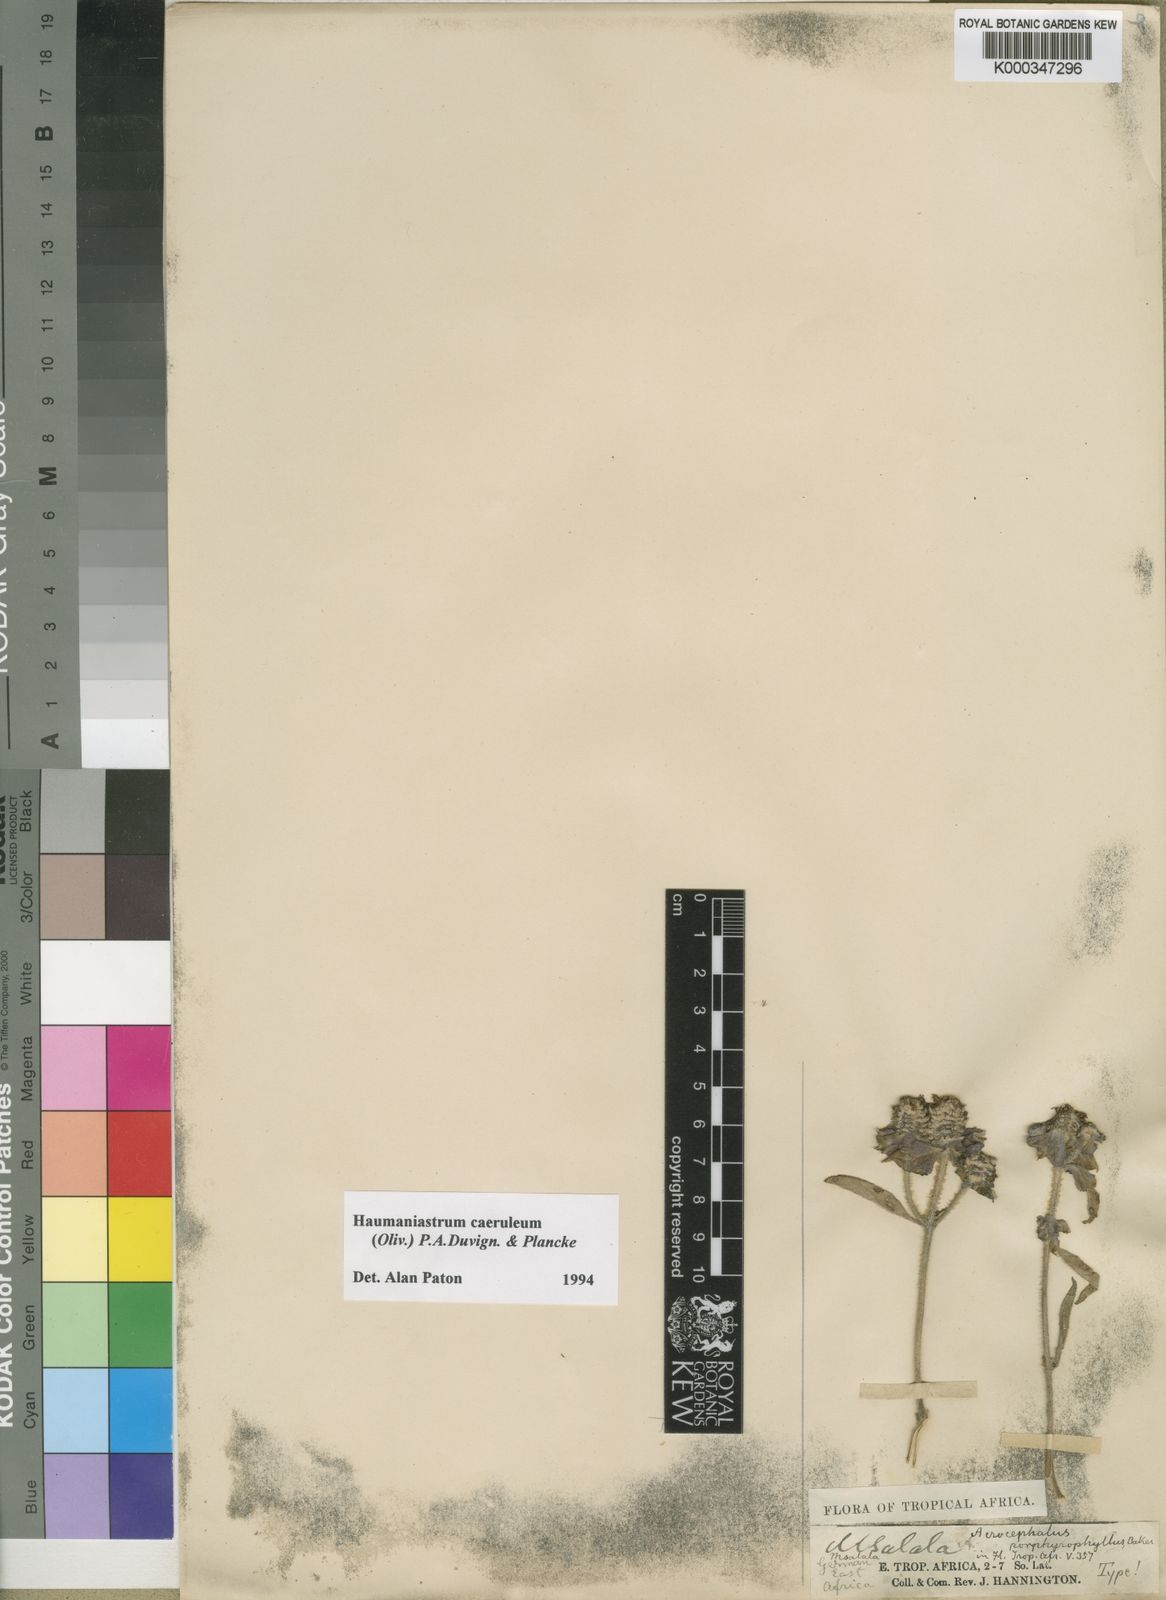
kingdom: Plantae
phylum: Tracheophyta
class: Magnoliopsida
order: Lamiales
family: Lamiaceae
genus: Haumaniastrum
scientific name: Haumaniastrum caeruleum
